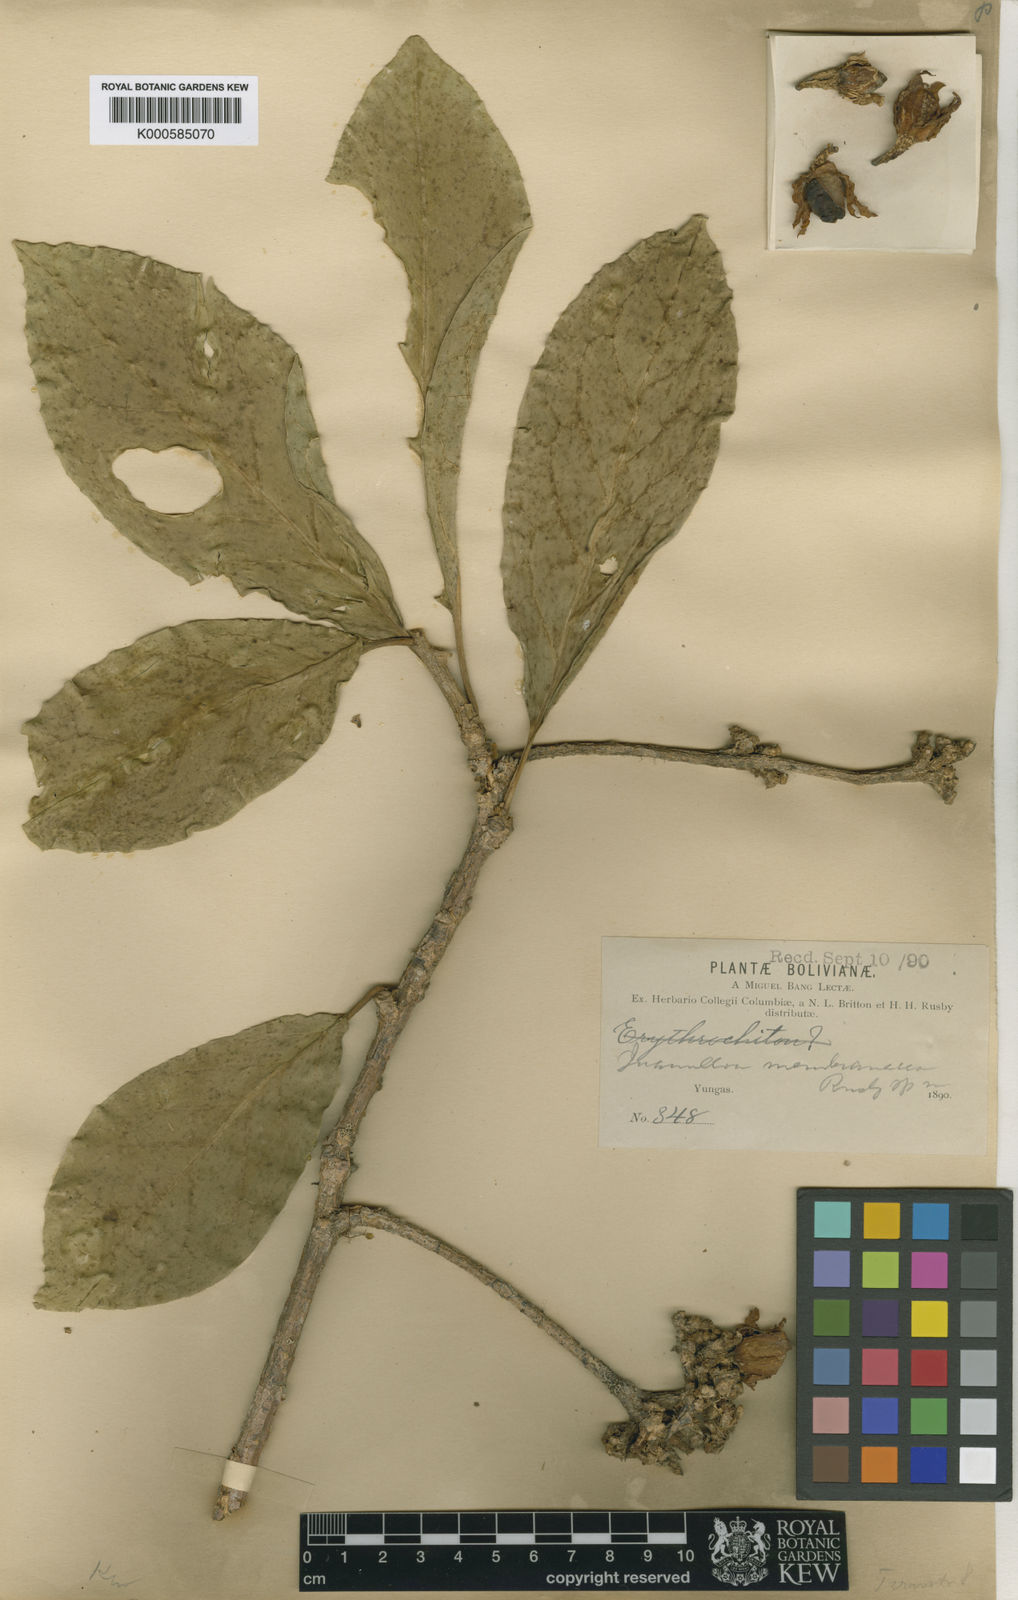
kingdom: Plantae
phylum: Tracheophyta
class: Magnoliopsida
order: Solanales
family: Solanaceae
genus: Juanulloa
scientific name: Juanulloa parasitica
